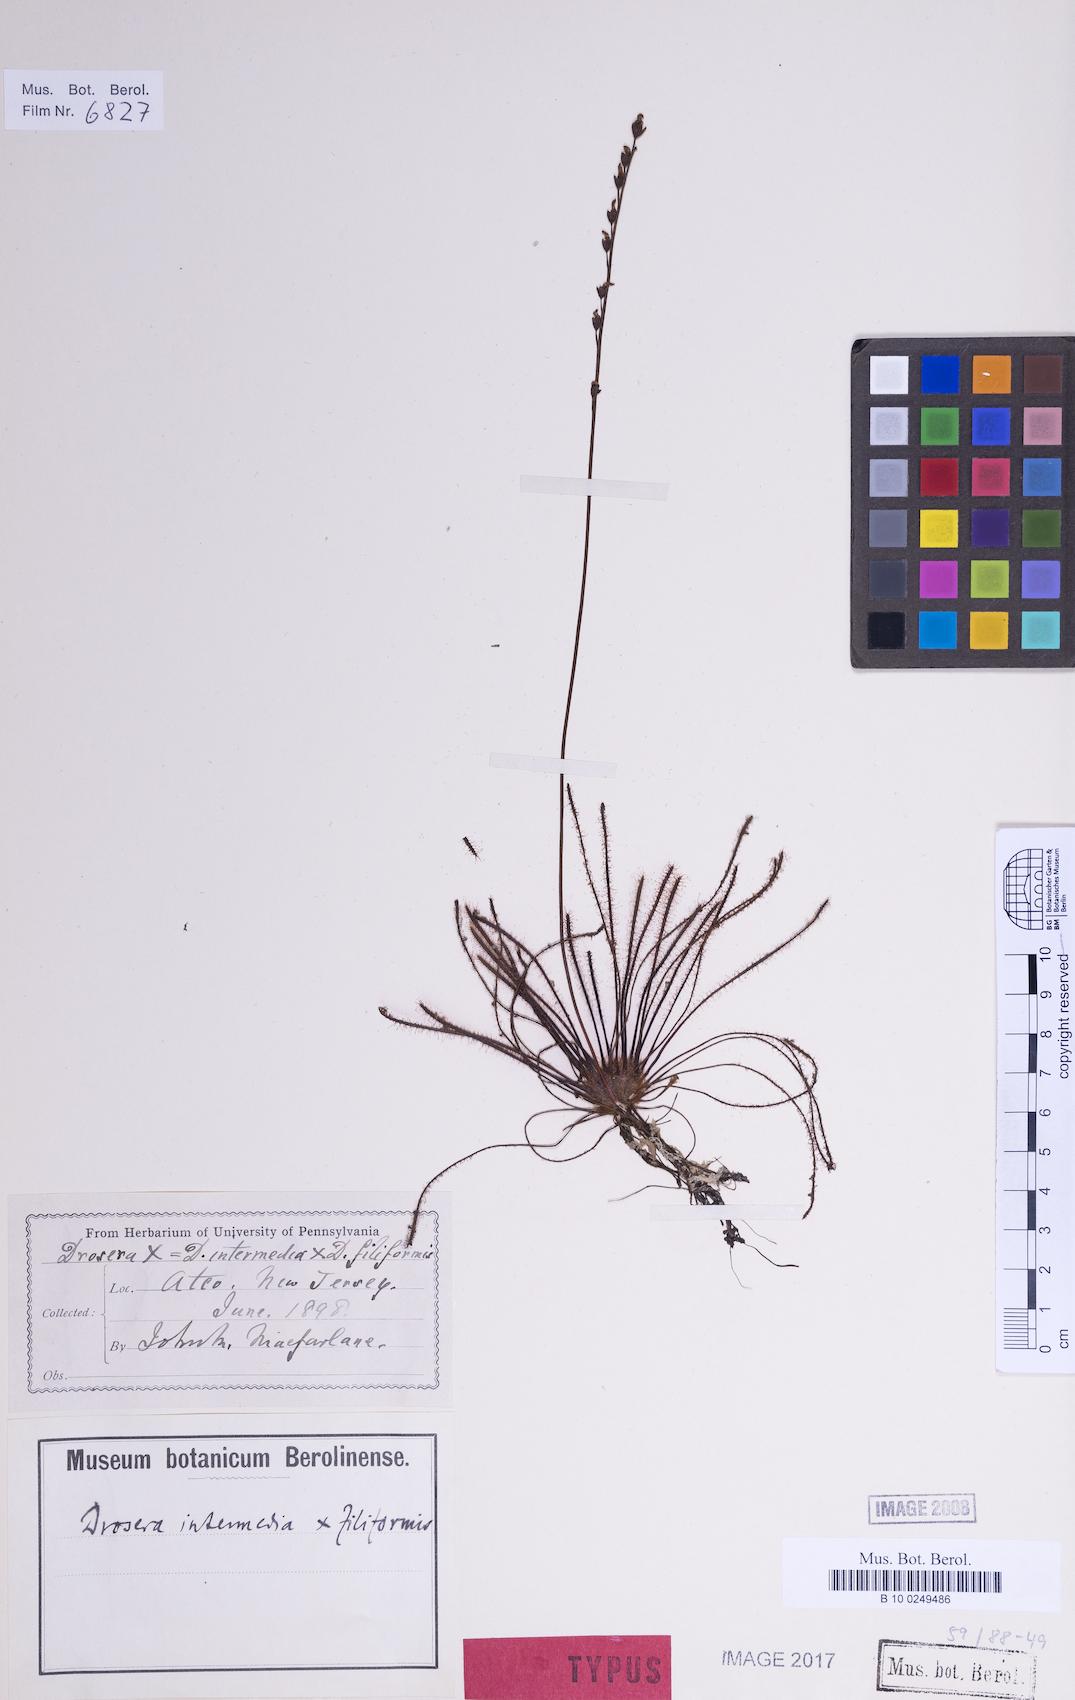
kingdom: Plantae
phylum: Tracheophyta
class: Magnoliopsida
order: Caryophyllales
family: Droseraceae
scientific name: Droseraceae
